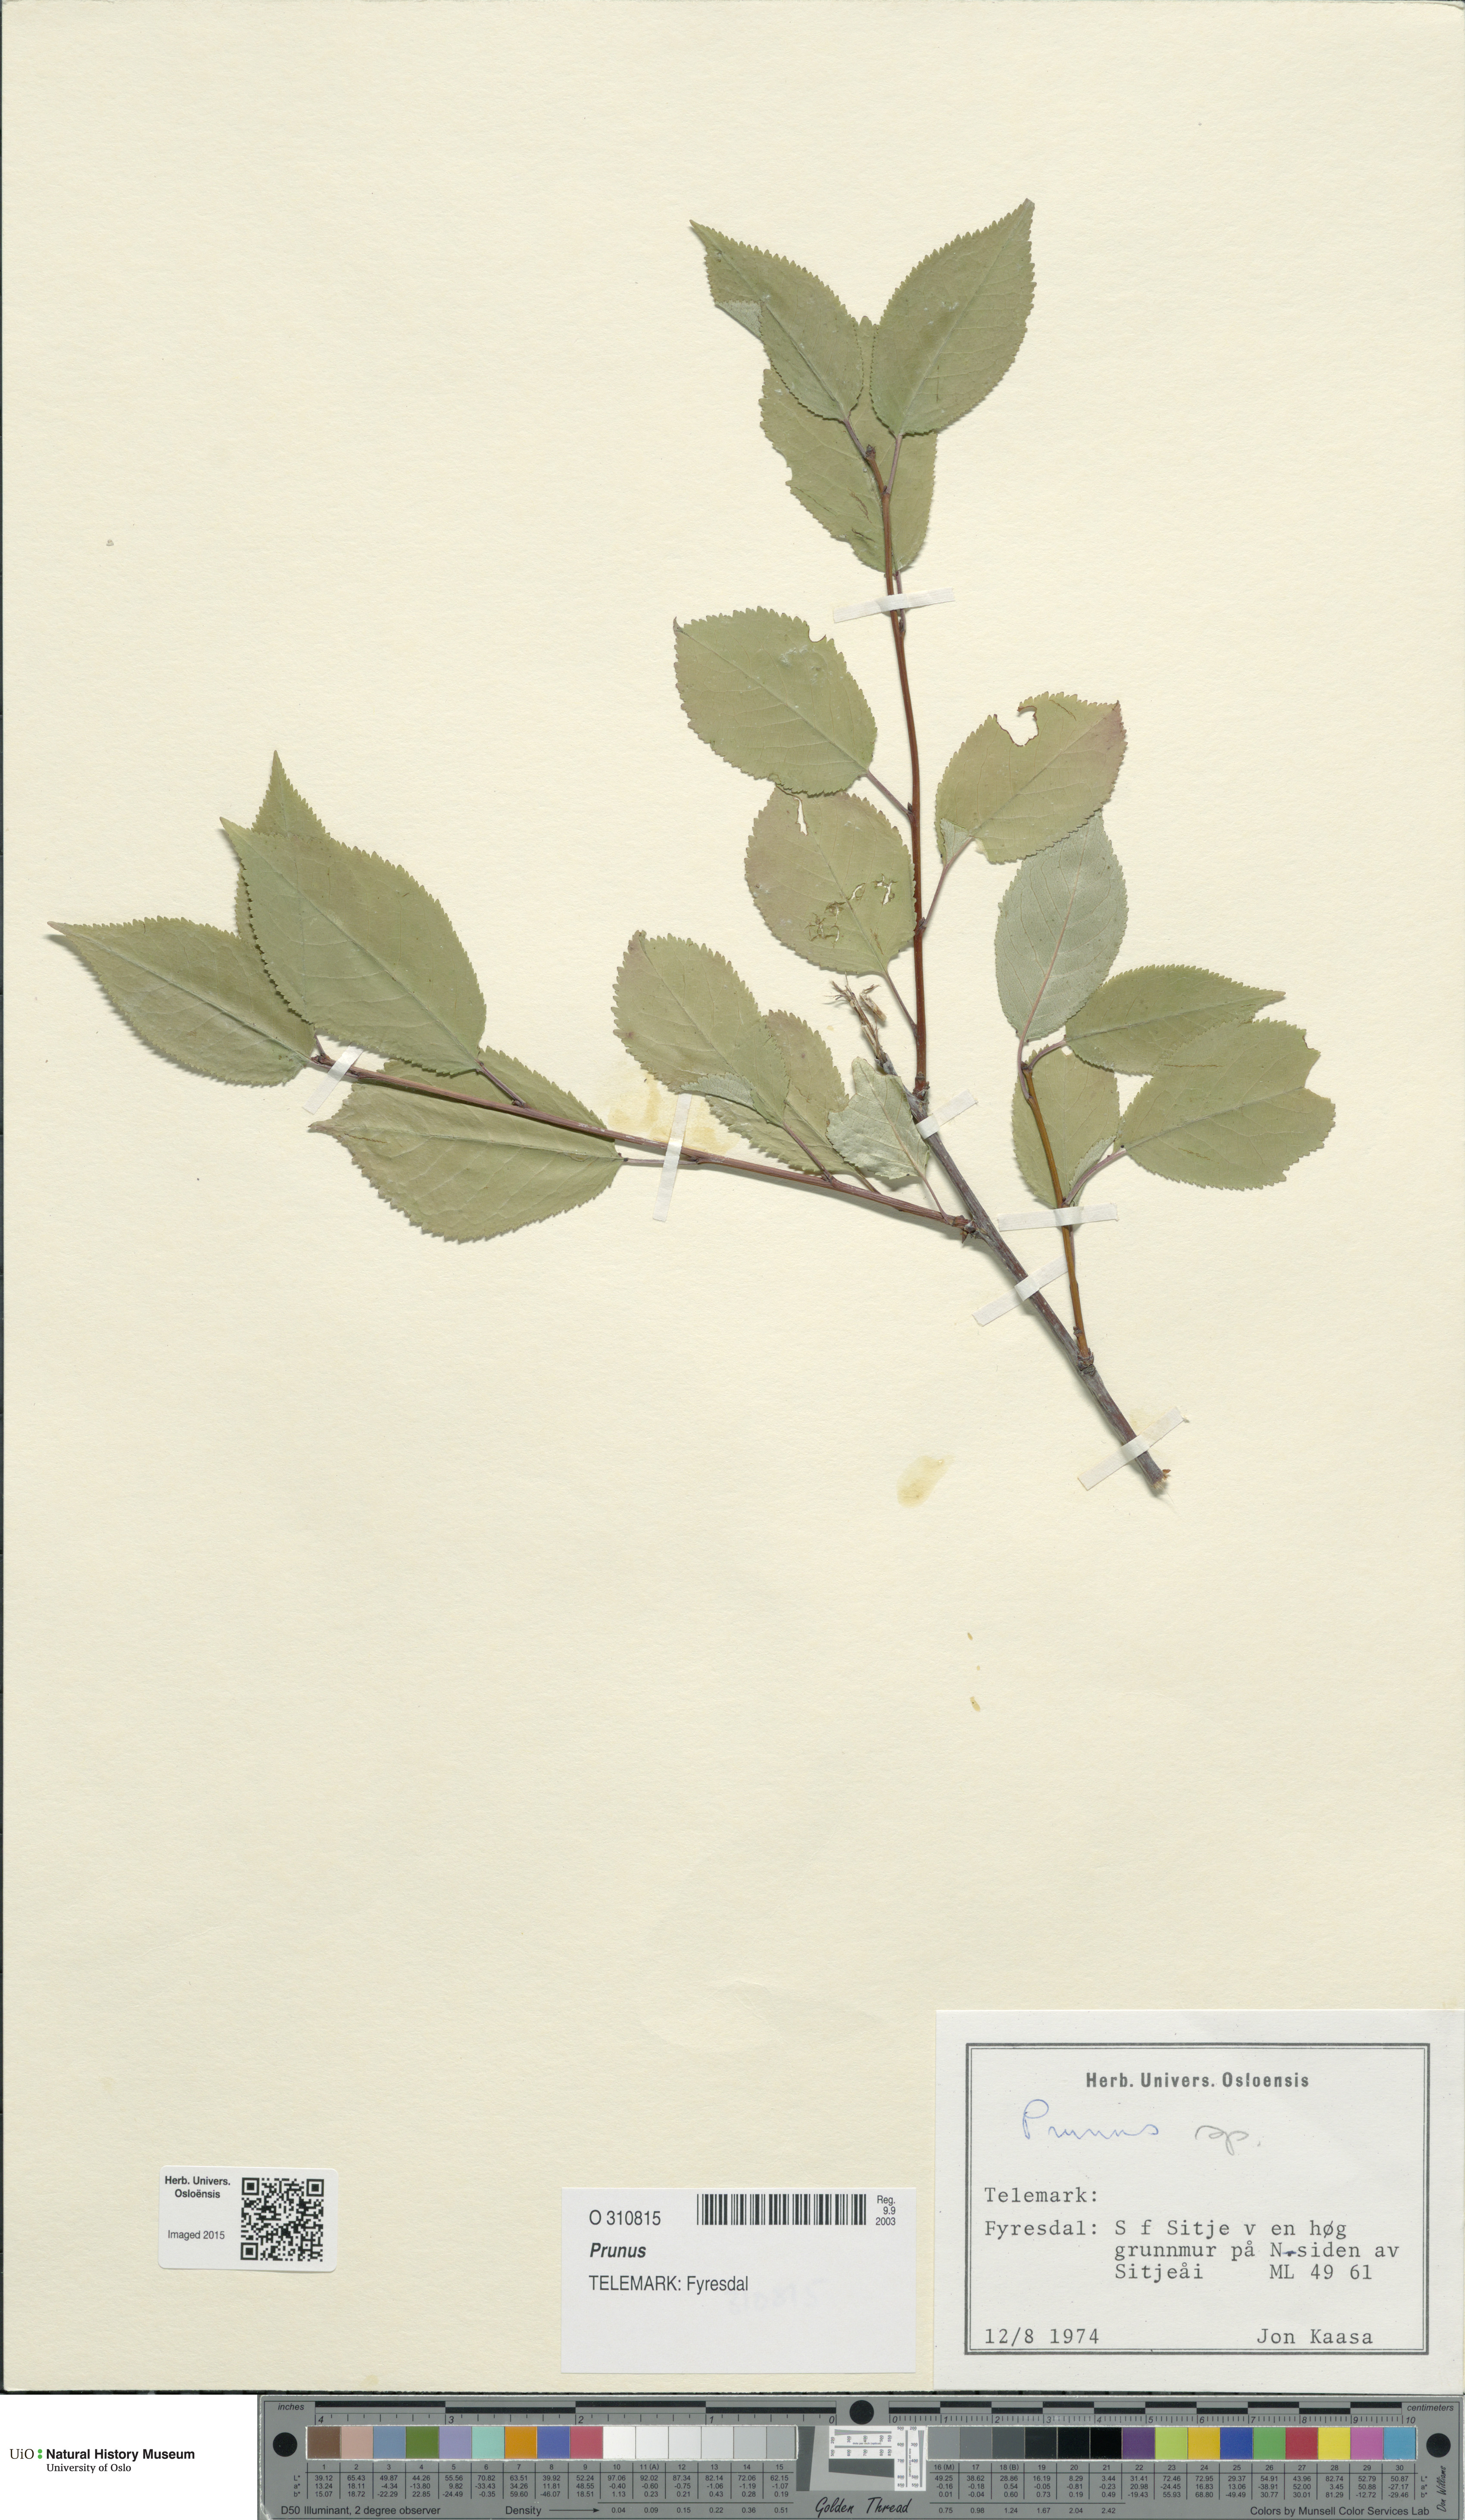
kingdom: Plantae
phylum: Tracheophyta
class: Magnoliopsida
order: Rosales
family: Rosaceae
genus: Prunus
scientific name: Prunus
